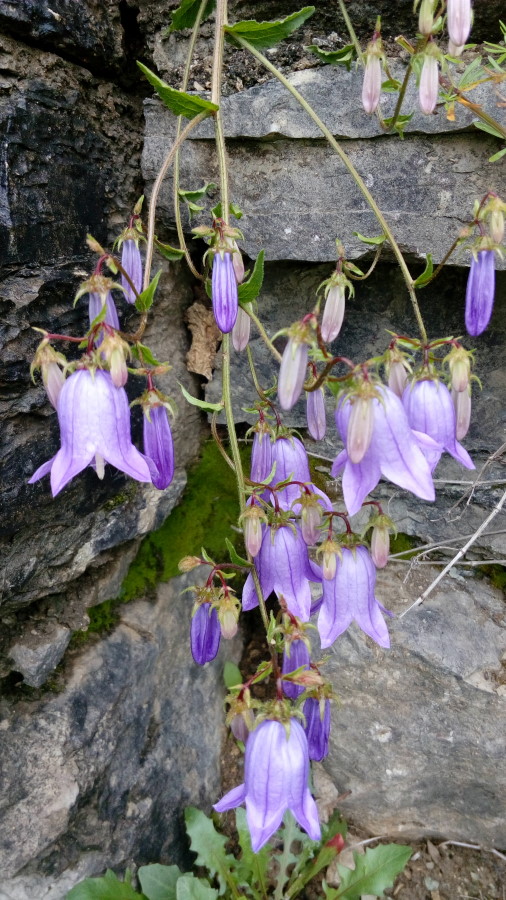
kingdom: Plantae
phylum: Tracheophyta
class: Magnoliopsida
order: Asterales
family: Campanulaceae
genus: Campanula
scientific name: Campanula longistyla
